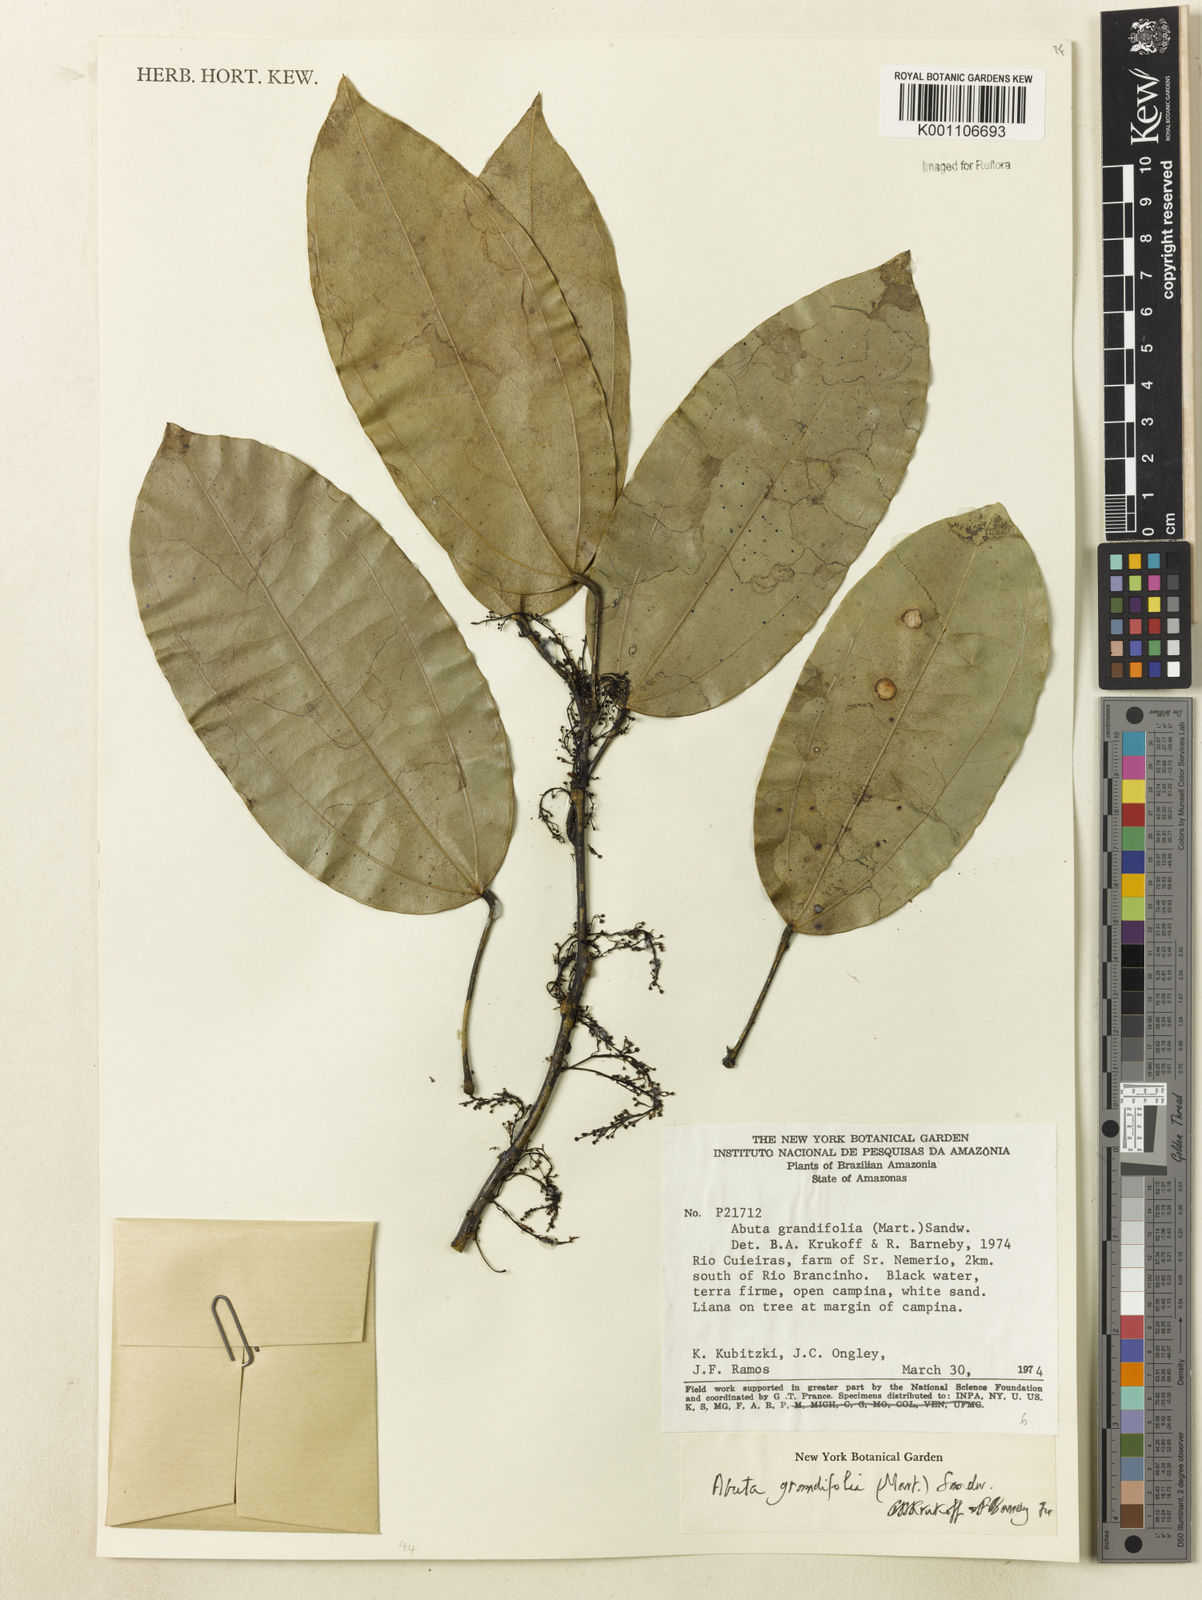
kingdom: Plantae
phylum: Tracheophyta
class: Magnoliopsida
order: Ranunculales
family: Menispermaceae
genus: Abuta
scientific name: Abuta grandifolia
